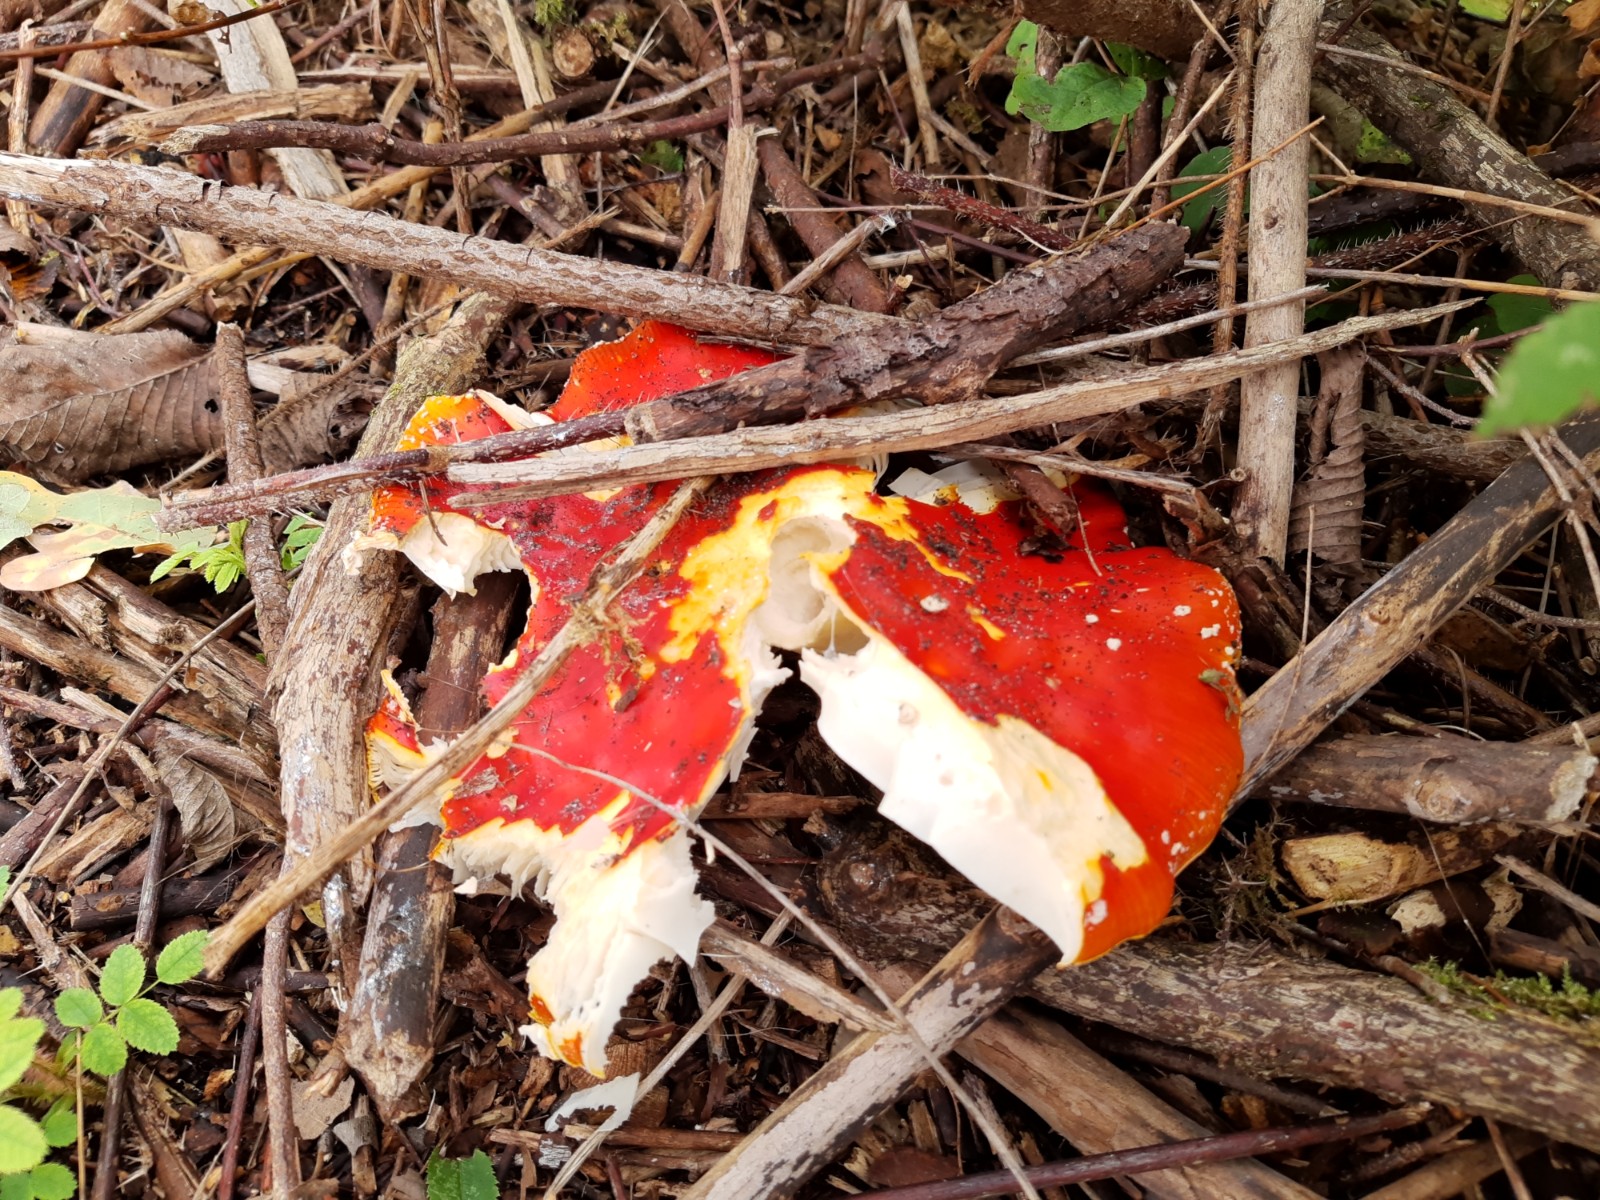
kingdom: Fungi
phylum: Basidiomycota
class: Agaricomycetes
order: Agaricales
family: Amanitaceae
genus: Amanita
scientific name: Amanita muscaria
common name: rød fluesvamp
